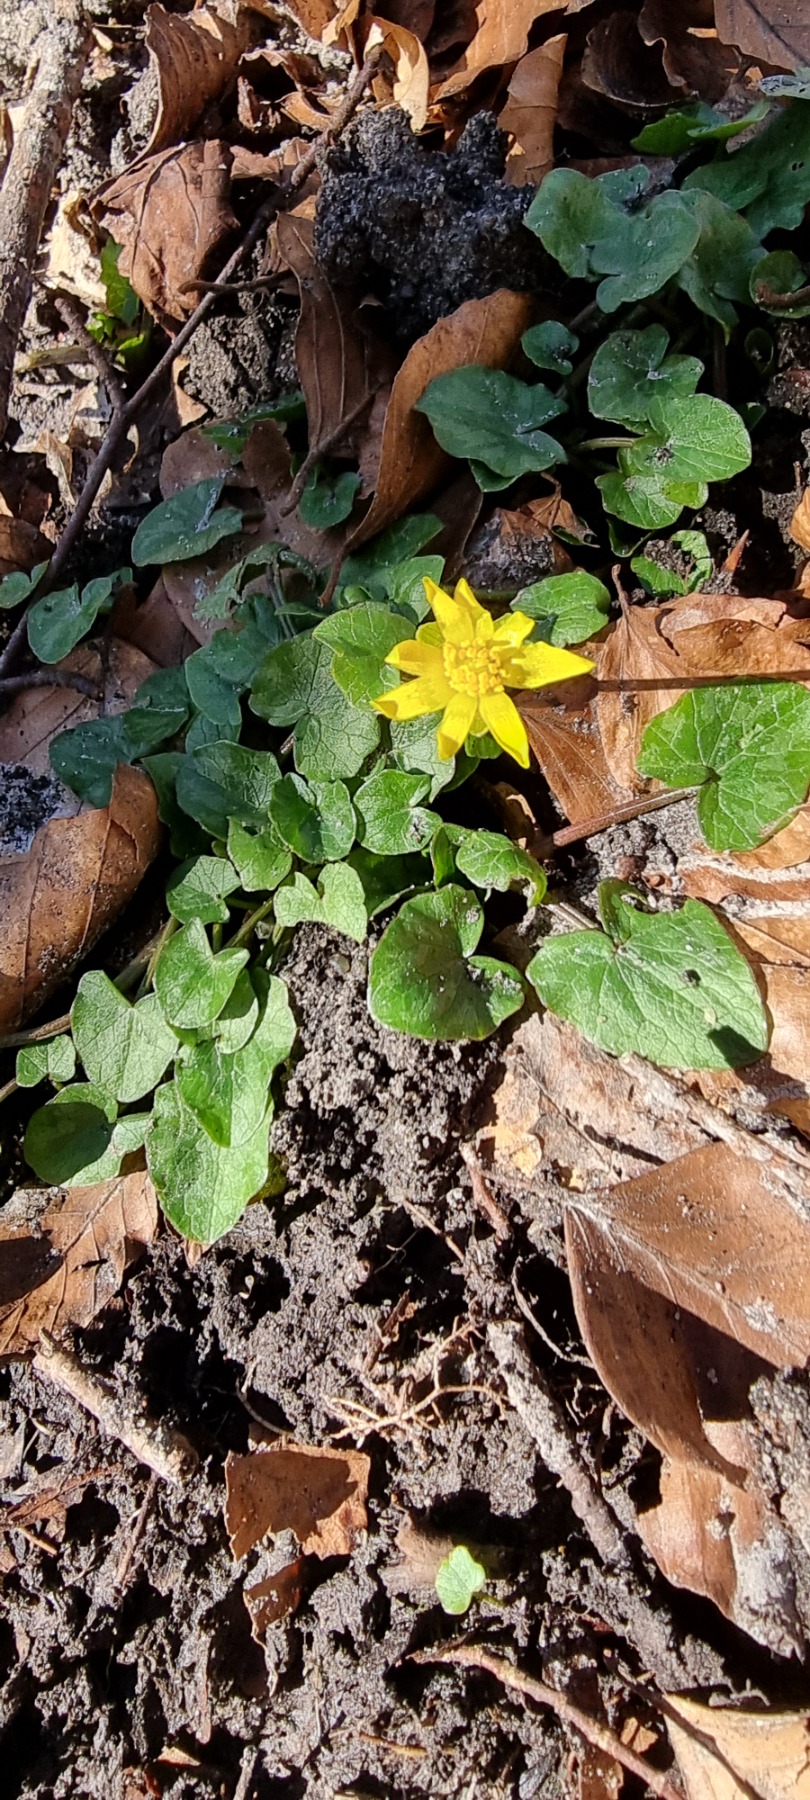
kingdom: Plantae
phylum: Tracheophyta
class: Magnoliopsida
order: Ranunculales
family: Ranunculaceae
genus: Ficaria
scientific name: Ficaria verna
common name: Vorterod
